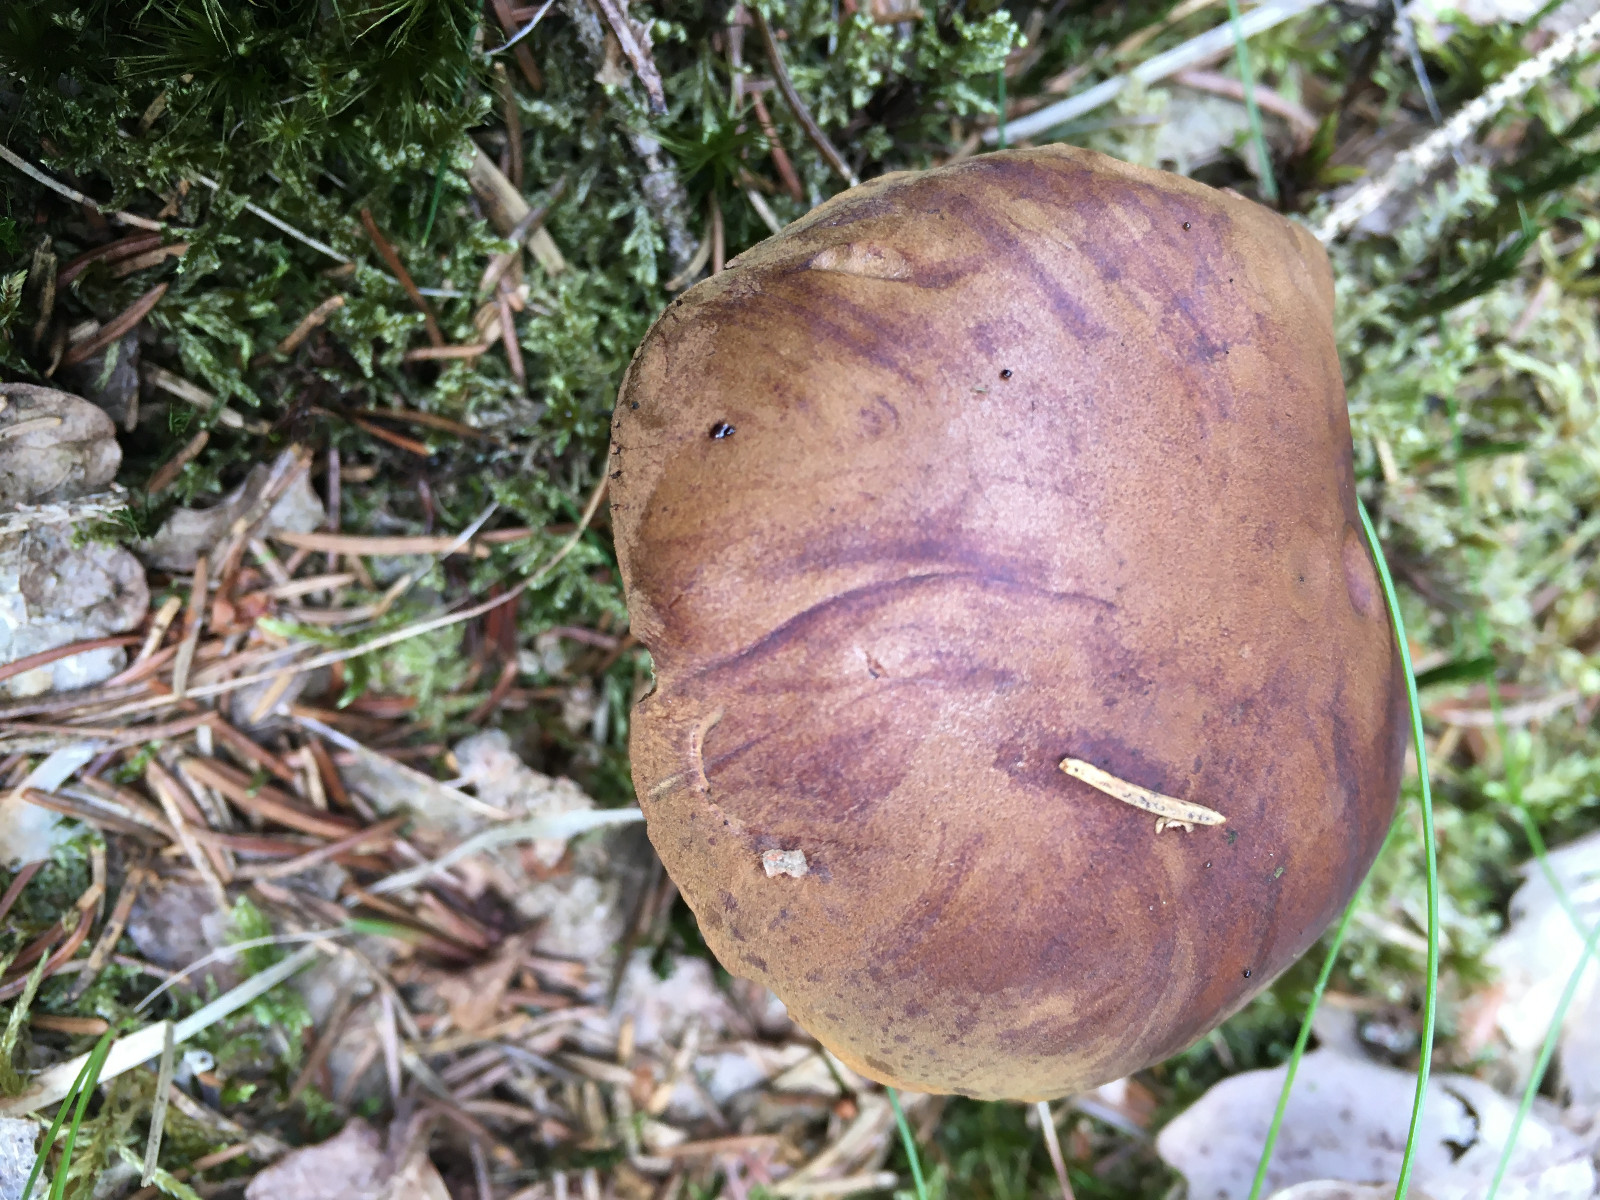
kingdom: Fungi
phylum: Basidiomycota
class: Agaricomycetes
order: Boletales
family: Boletaceae
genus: Imleria
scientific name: Imleria badia
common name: brunstokket rørhat
